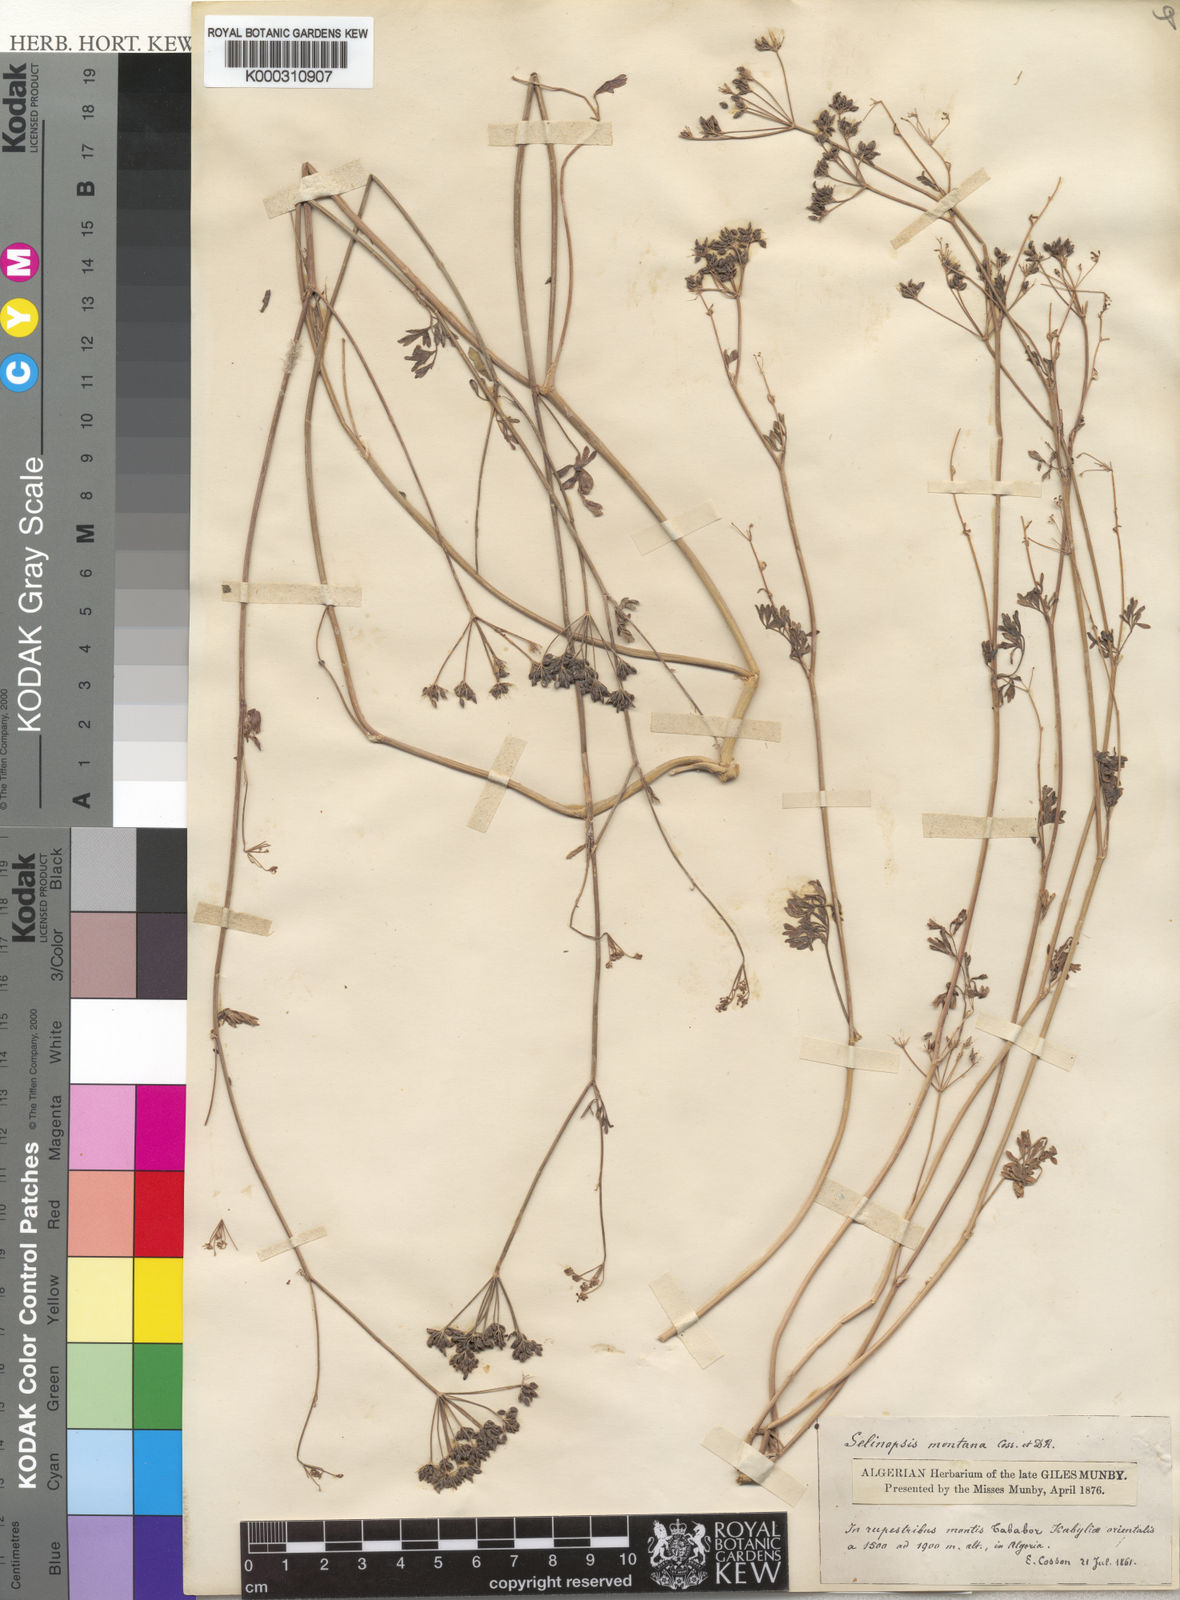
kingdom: Plantae
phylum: Tracheophyta
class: Magnoliopsida
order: Apiales
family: Apiaceae
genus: Perideridia
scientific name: Perideridia gairdneri
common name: False caraway
